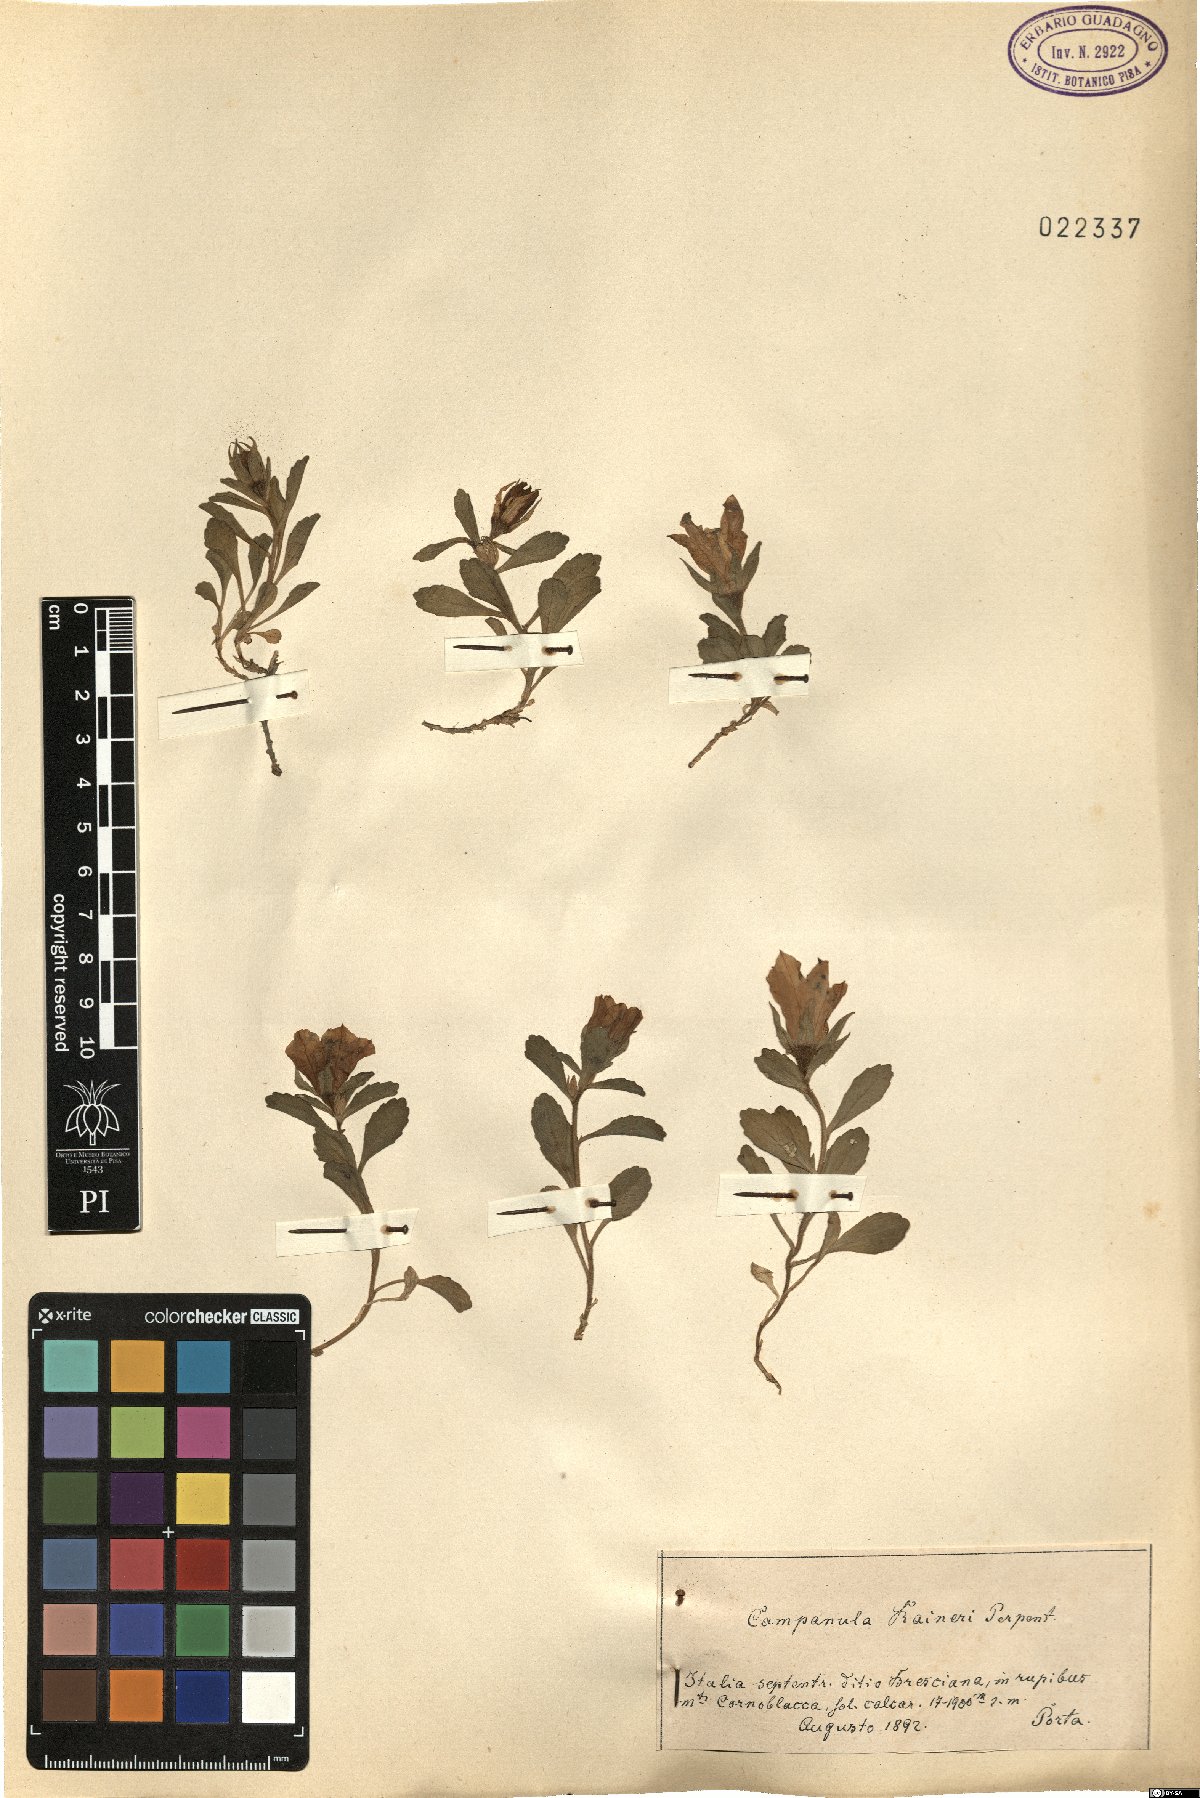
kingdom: Plantae
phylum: Tracheophyta
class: Magnoliopsida
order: Asterales
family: Campanulaceae
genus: Campanula
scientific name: Campanula raineri
